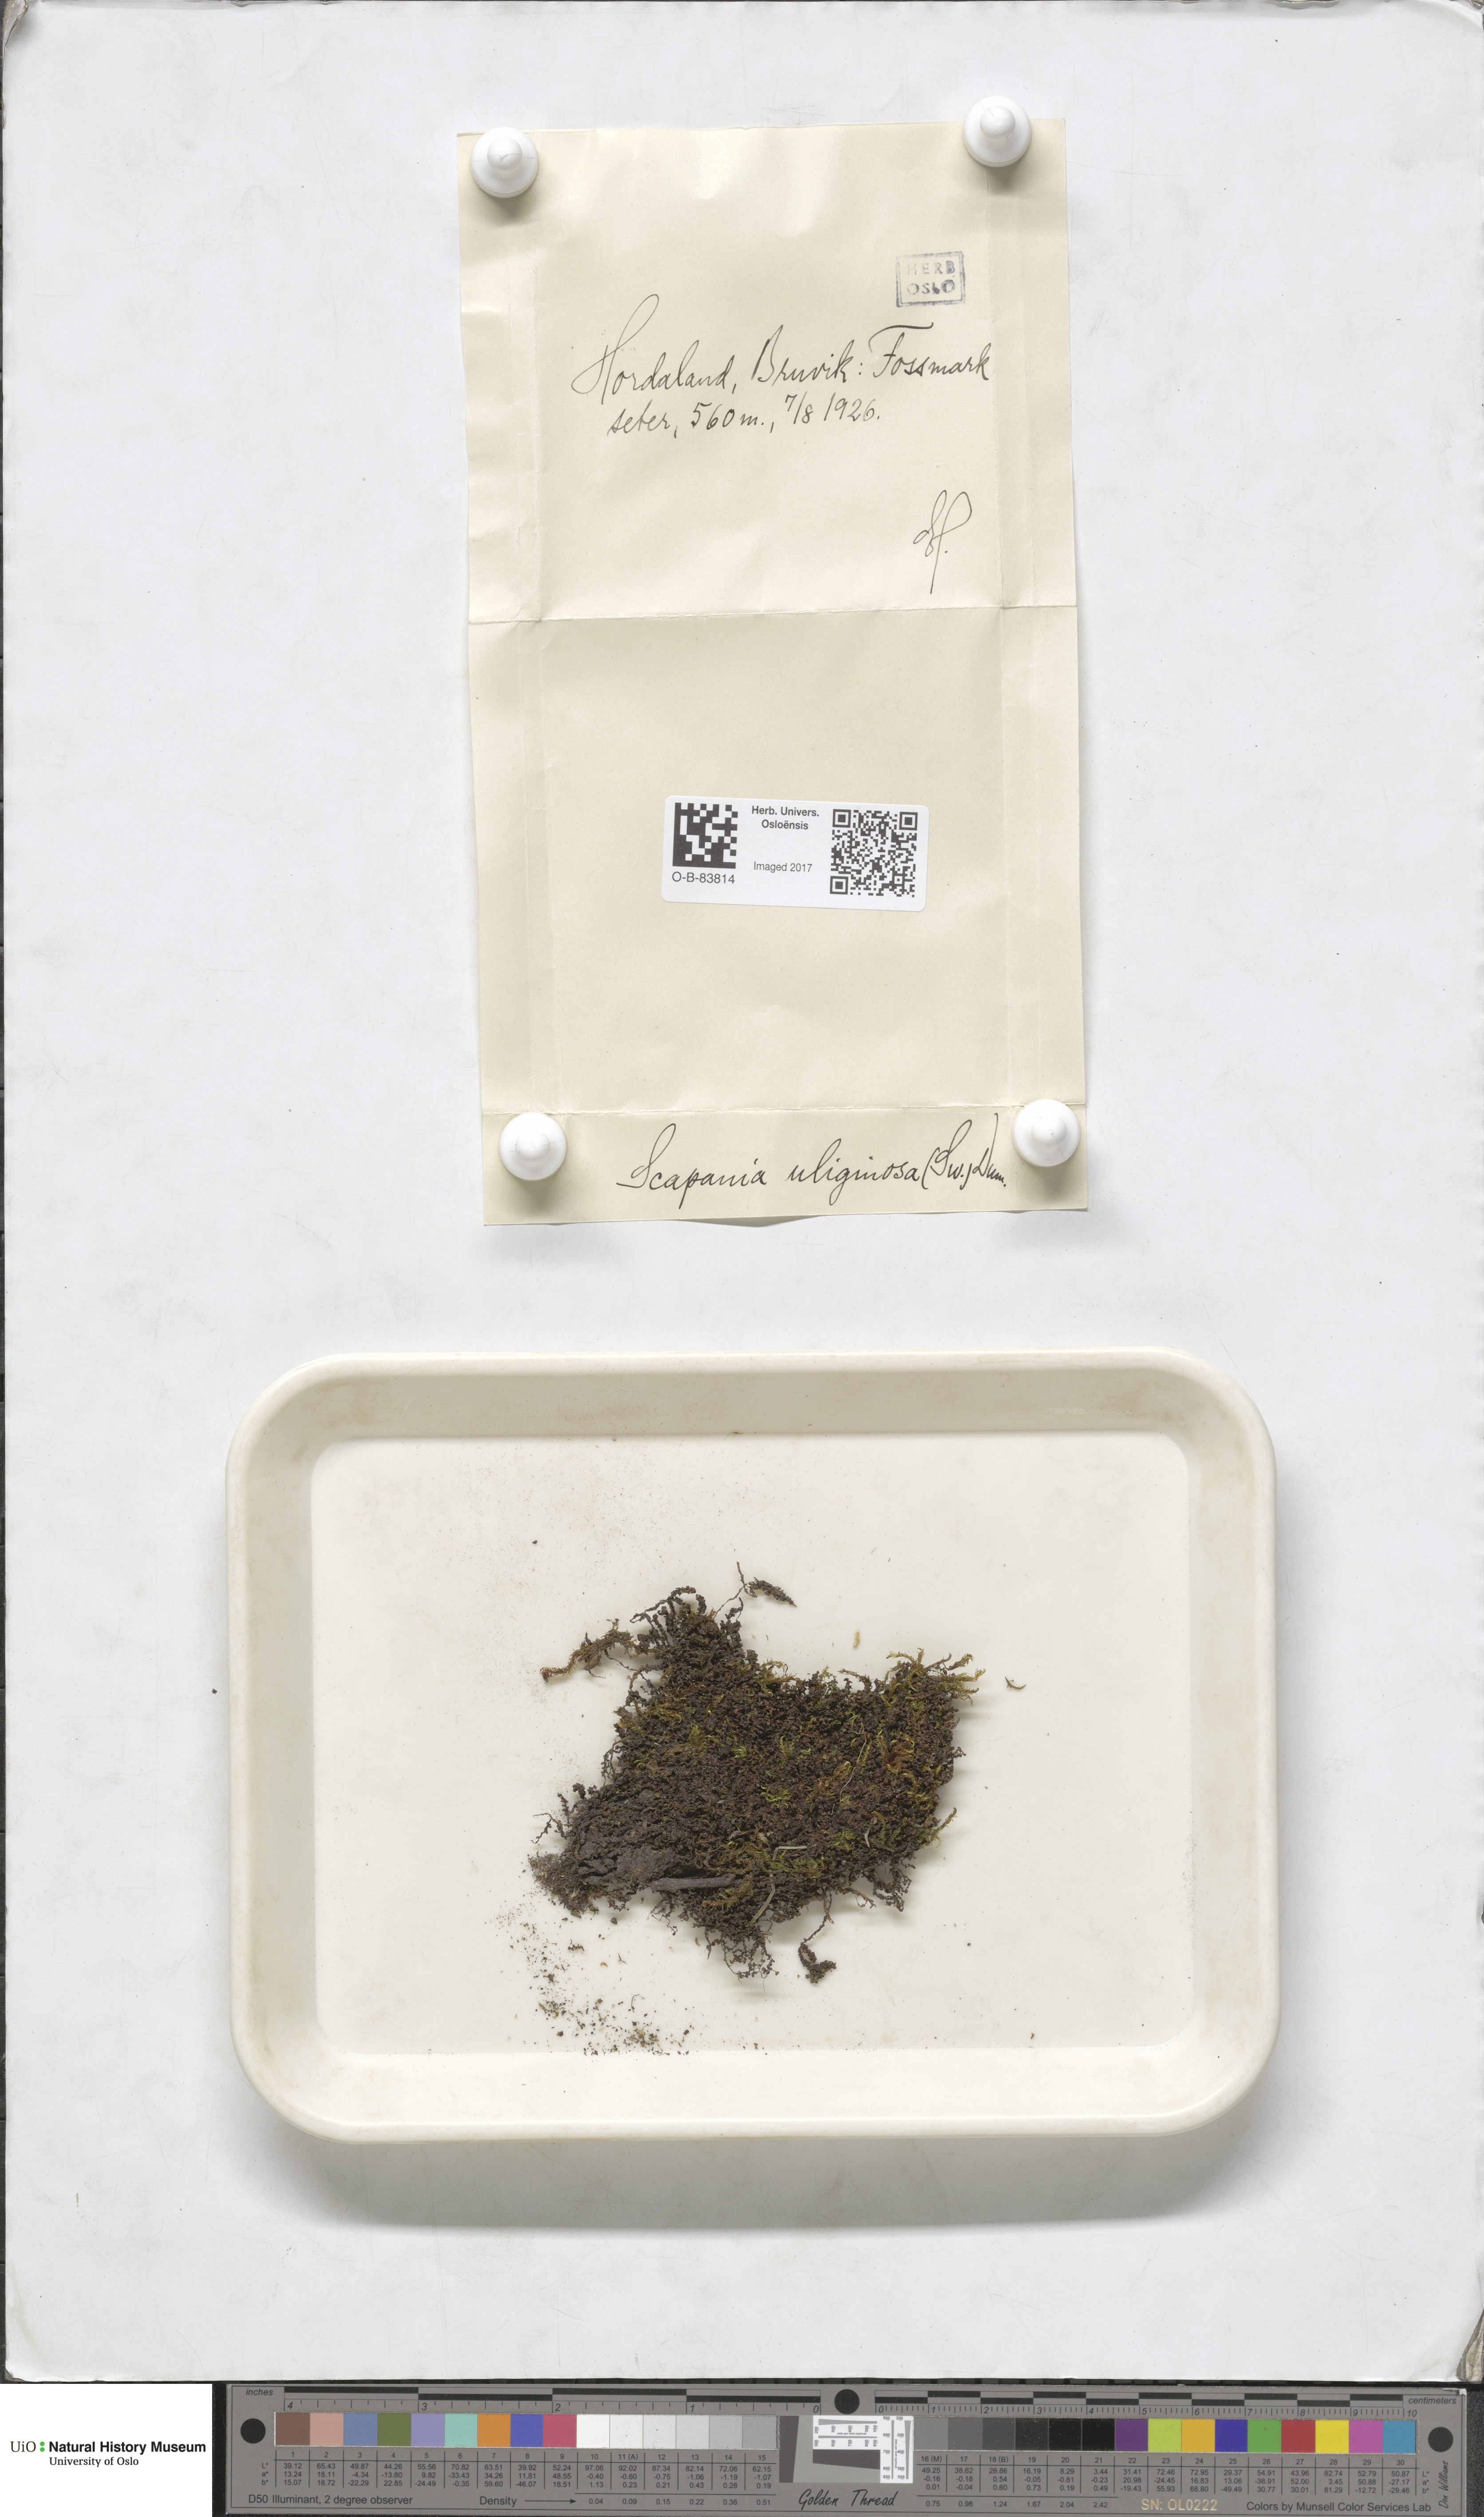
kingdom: Plantae
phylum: Marchantiophyta
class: Jungermanniopsida
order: Jungermanniales
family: Scapaniaceae
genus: Scapania
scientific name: Scapania uliginosa
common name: Marsh earwort
